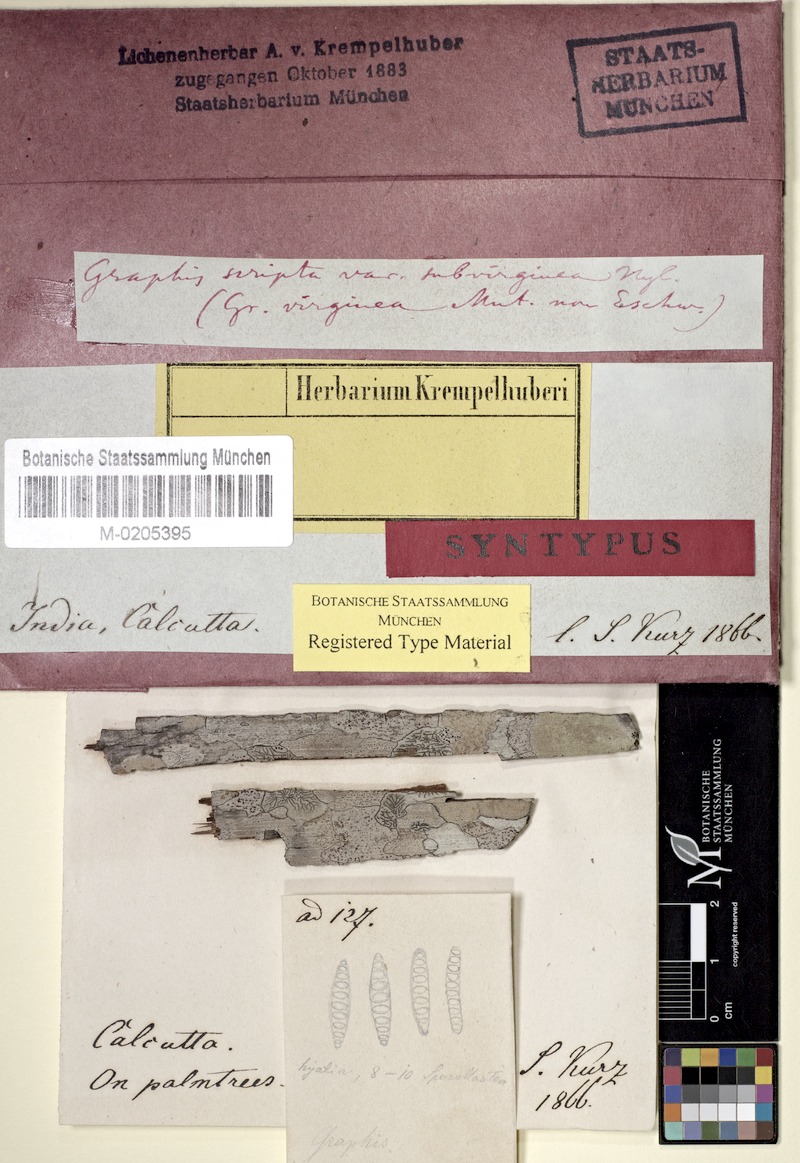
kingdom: Fungi
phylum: Ascomycota
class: Lecanoromycetes
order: Ostropales
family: Graphidaceae
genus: Graphis
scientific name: Graphis scripta
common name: Script lichen
